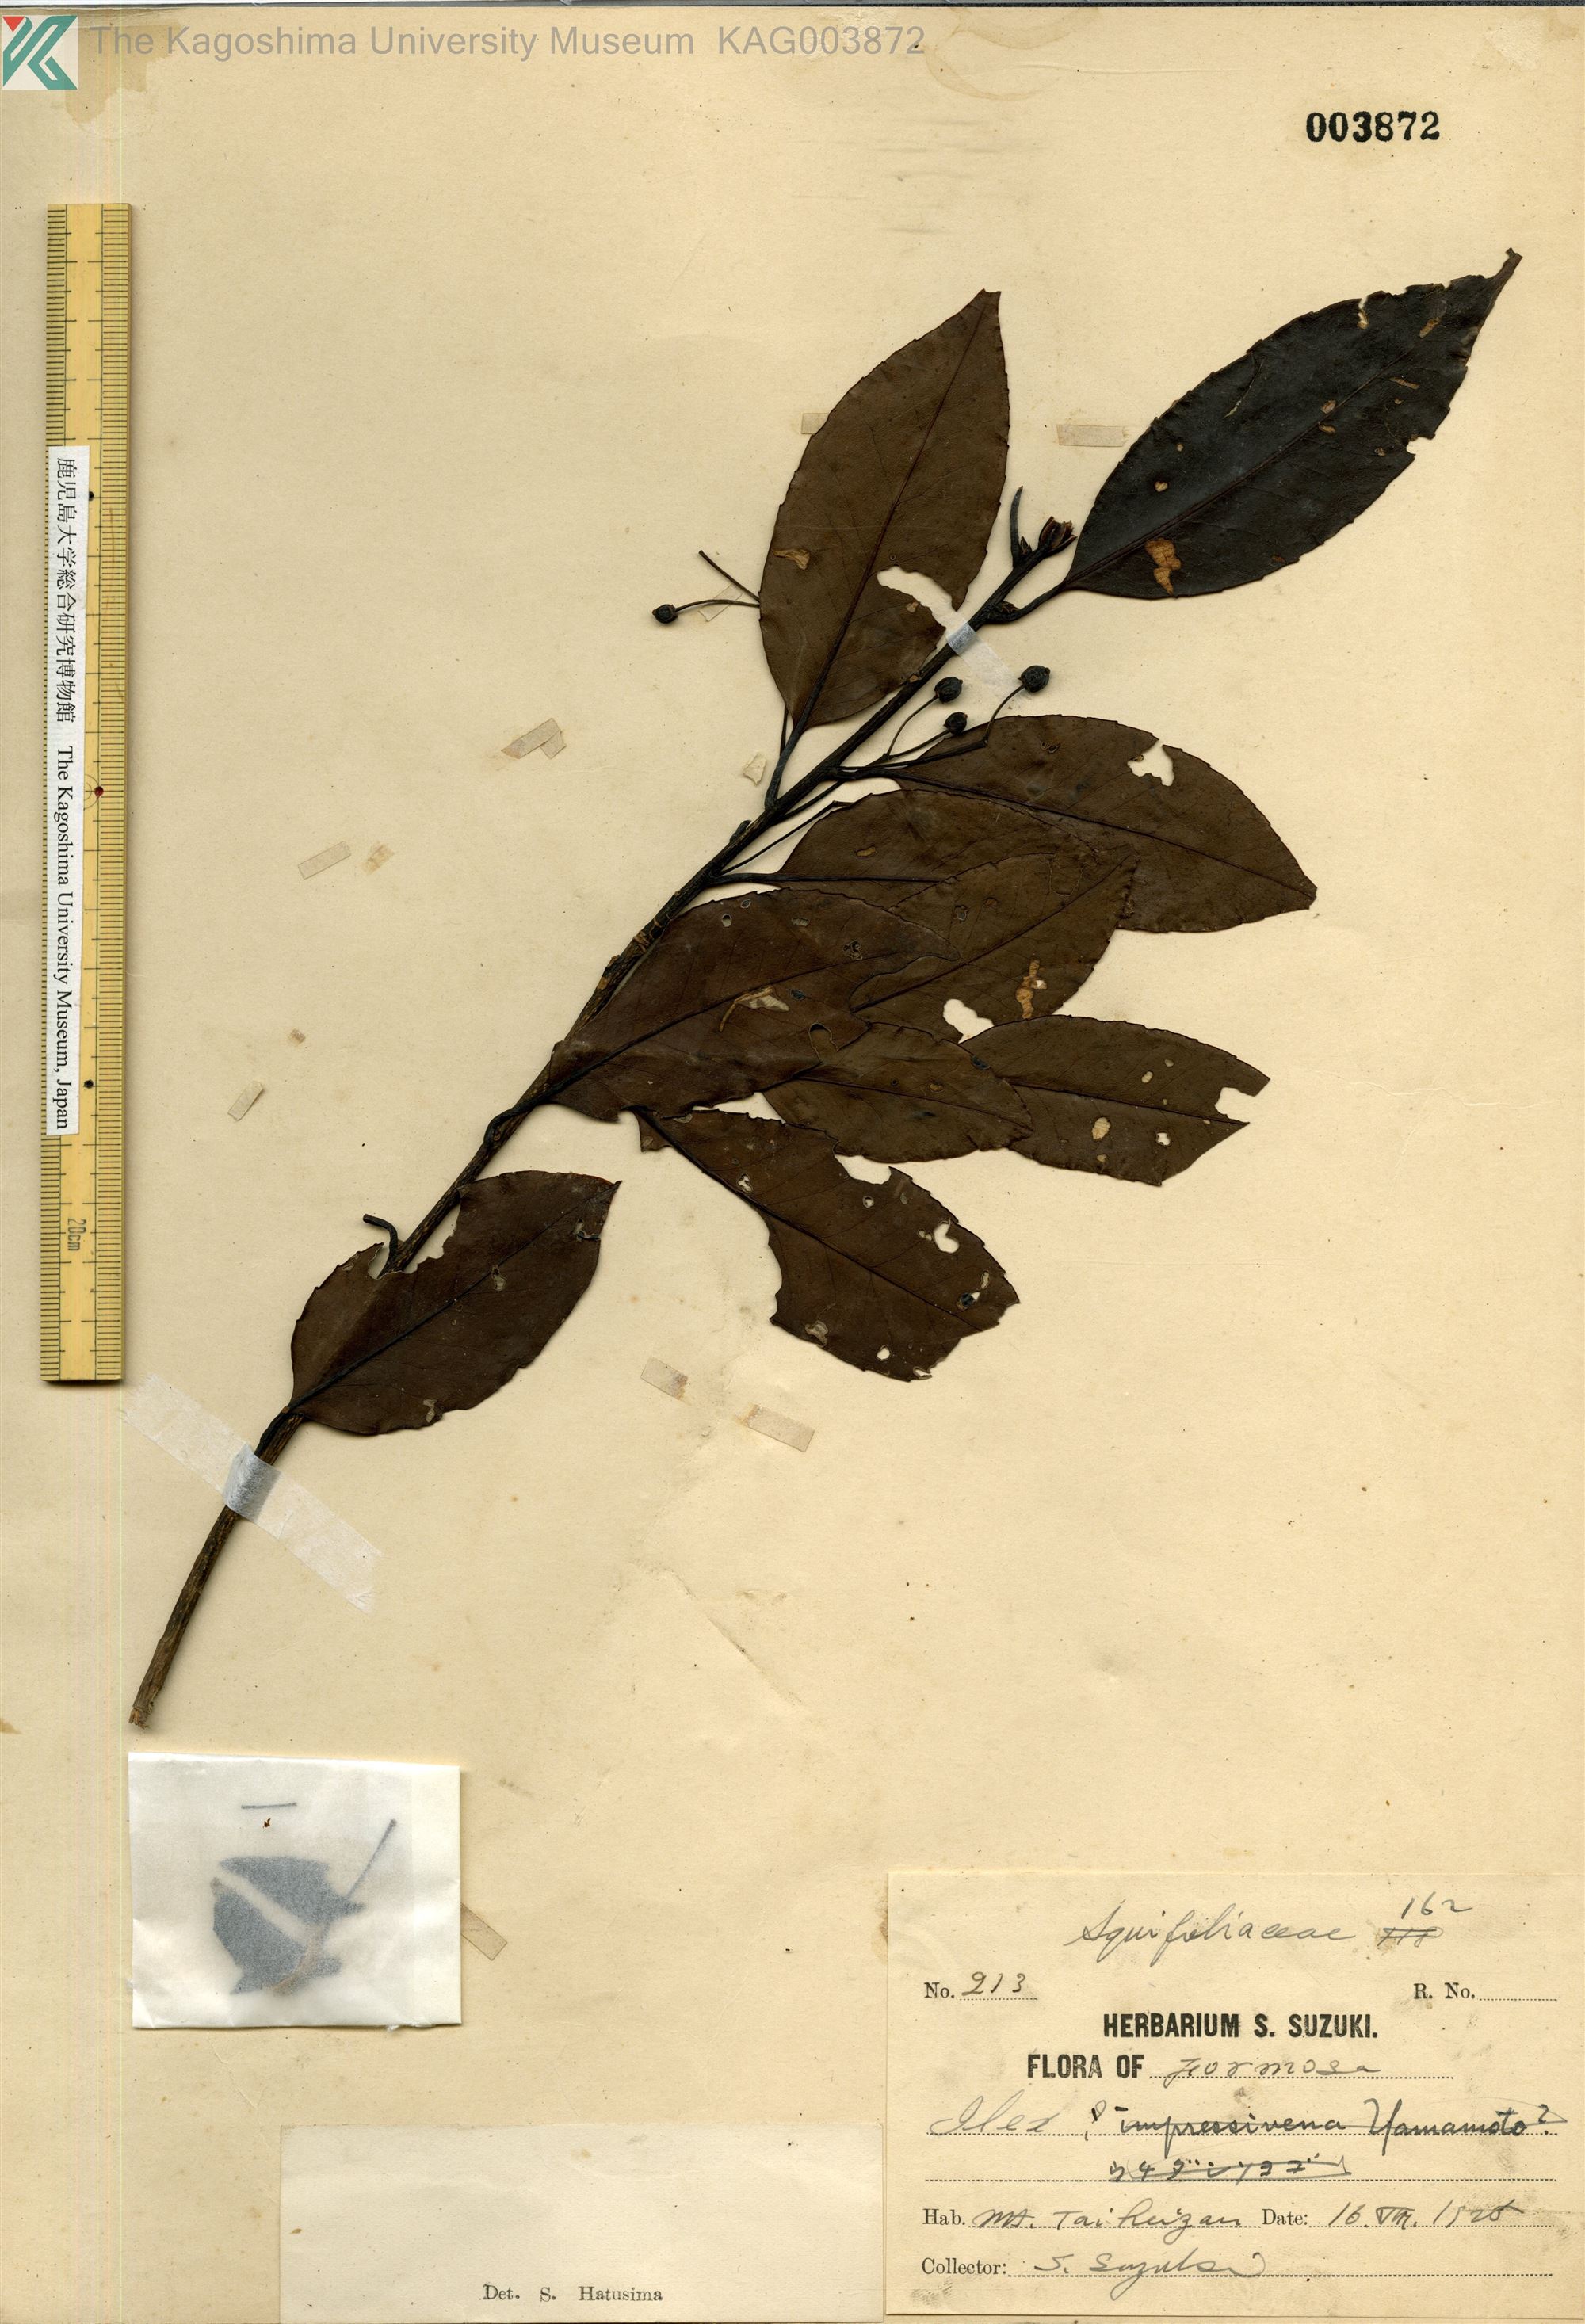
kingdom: Plantae
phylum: Tracheophyta
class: Magnoliopsida
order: Aquifoliales
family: Aquifoliaceae
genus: Ilex
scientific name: Ilex
